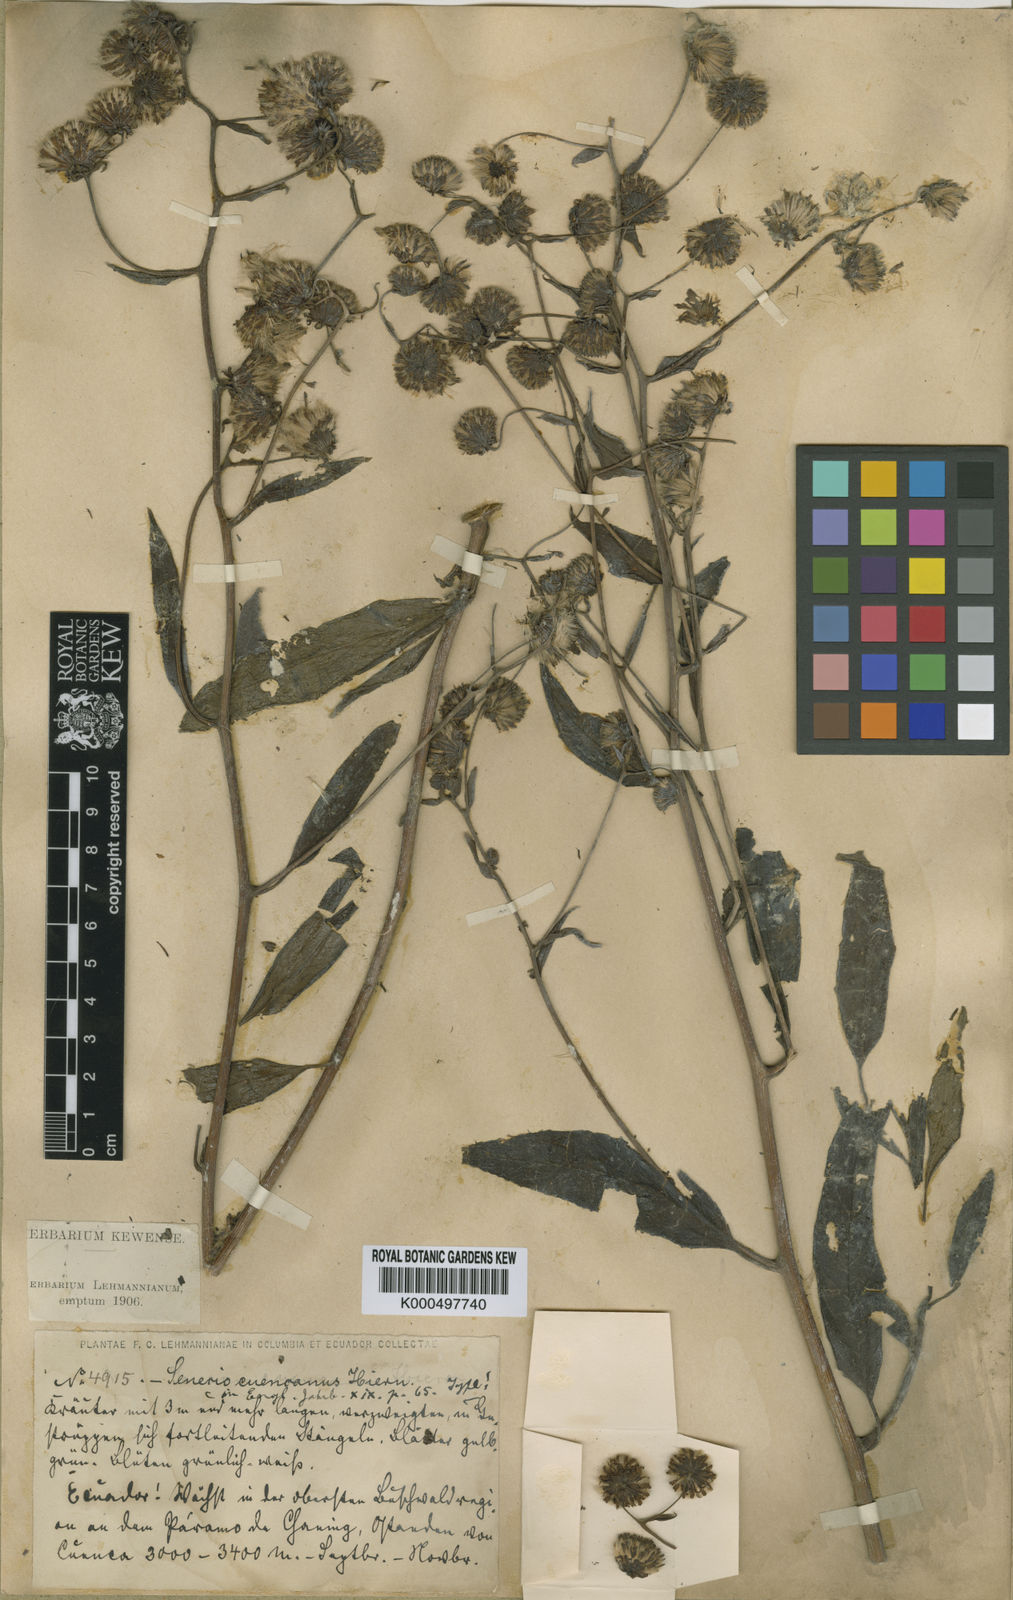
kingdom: Plantae
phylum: Tracheophyta
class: Magnoliopsida
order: Asterales
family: Asteraceae
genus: Aetheolaena
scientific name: Aetheolaena cuencana
